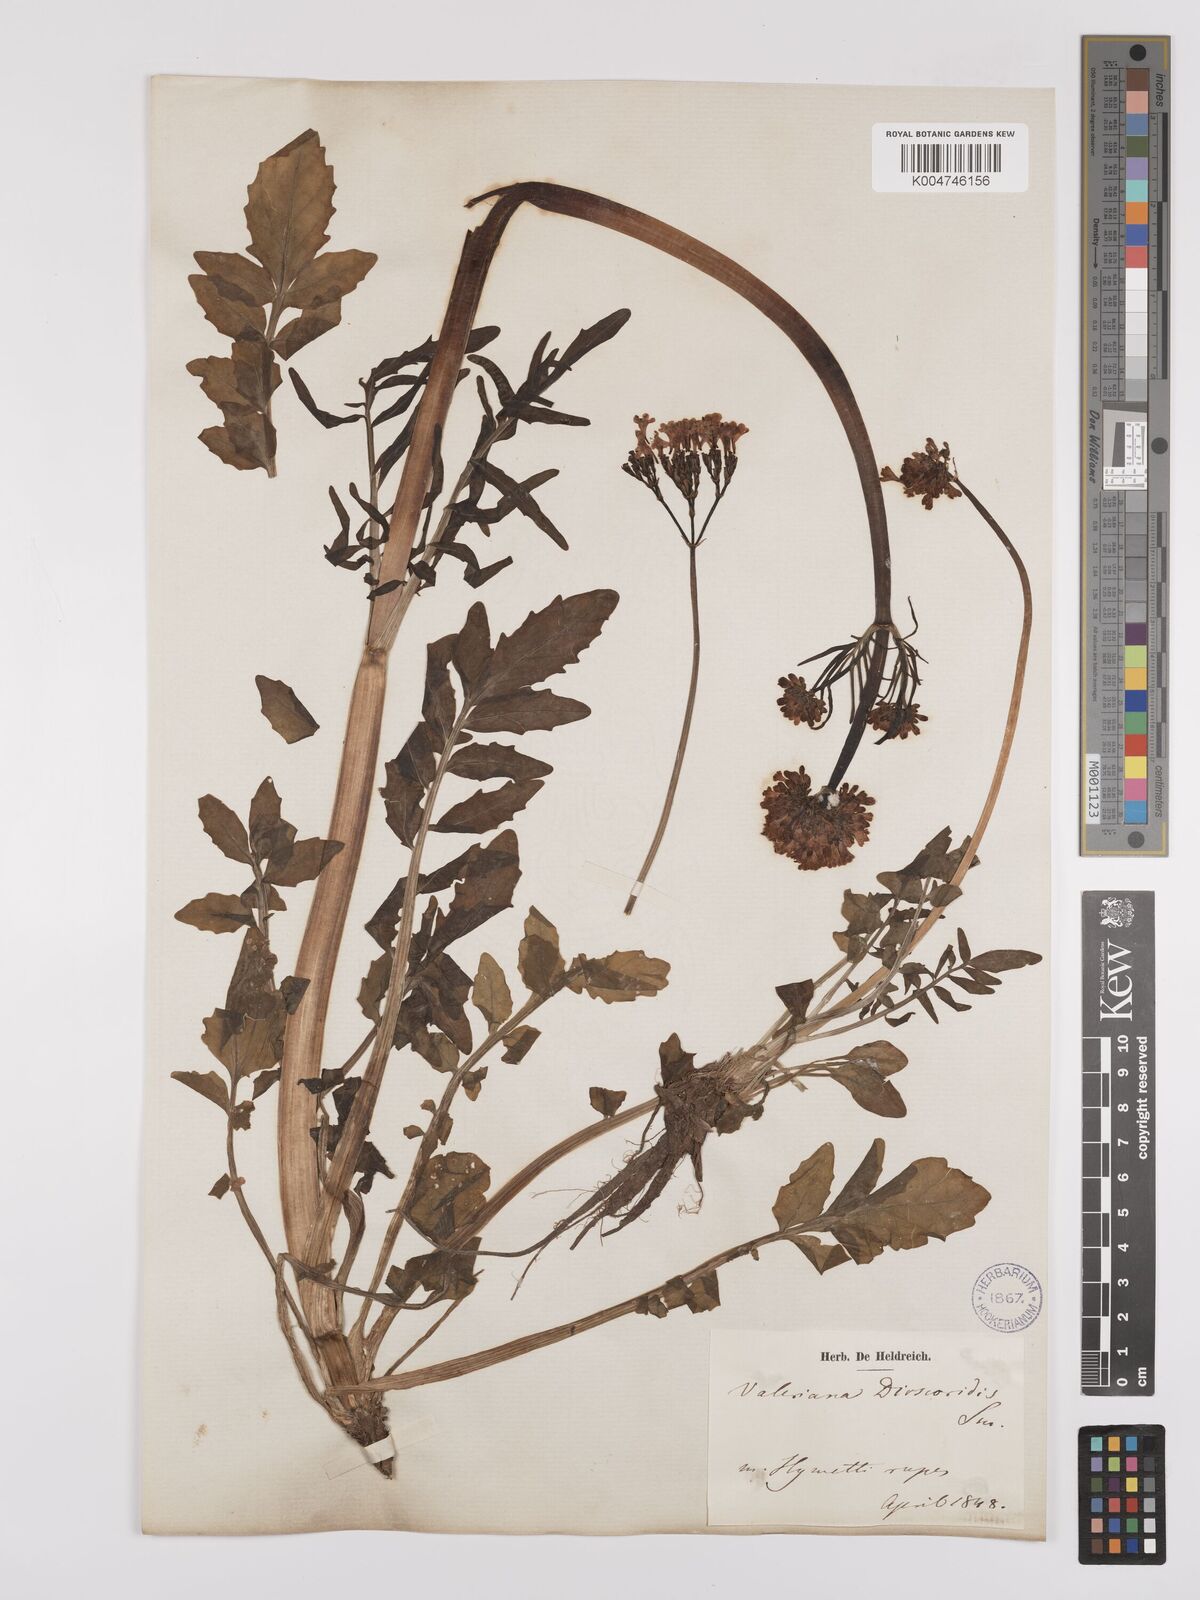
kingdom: Plantae
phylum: Tracheophyta
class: Magnoliopsida
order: Dipsacales
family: Caprifoliaceae
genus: Valeriana
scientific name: Valeriana dioscoridis
